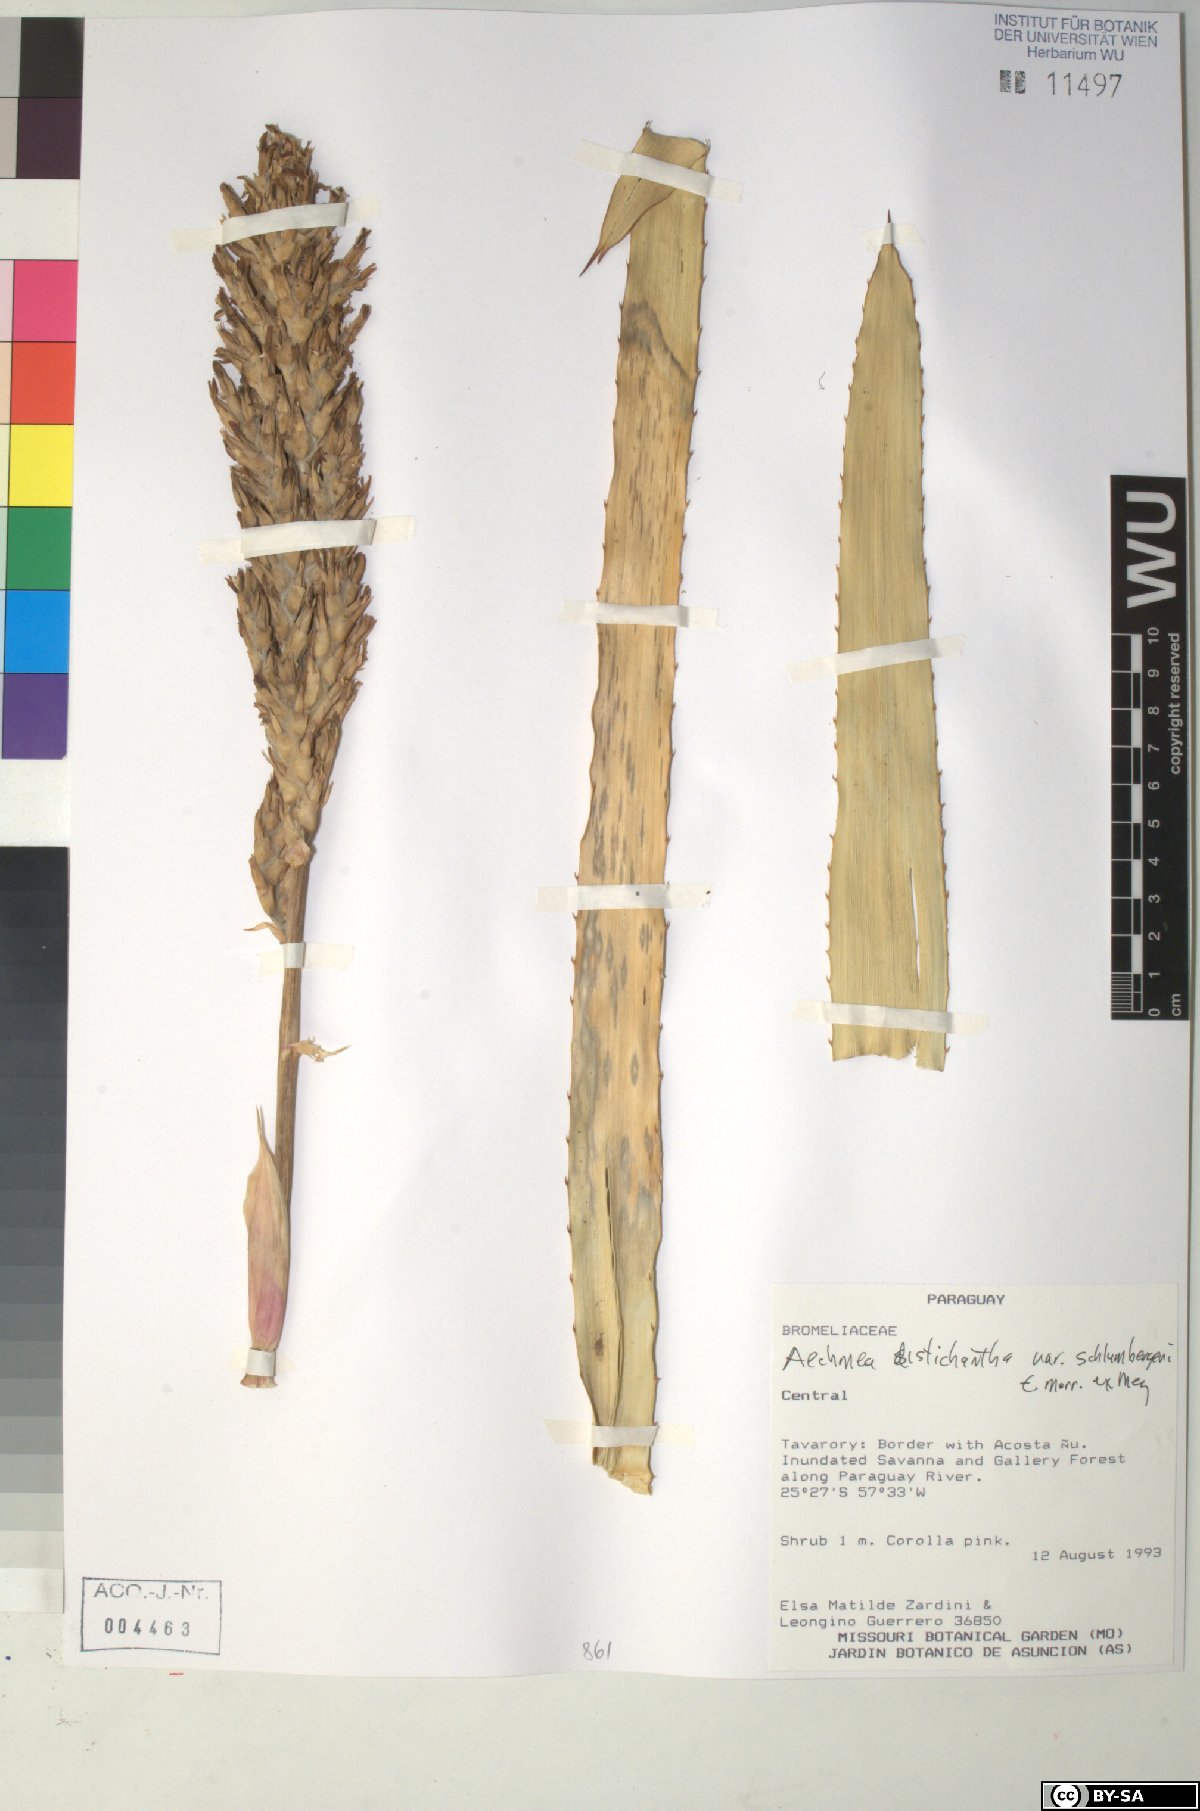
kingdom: Plantae
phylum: Tracheophyta
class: Liliopsida
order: Poales
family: Bromeliaceae
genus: Aechmea
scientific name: Aechmea distichantha
